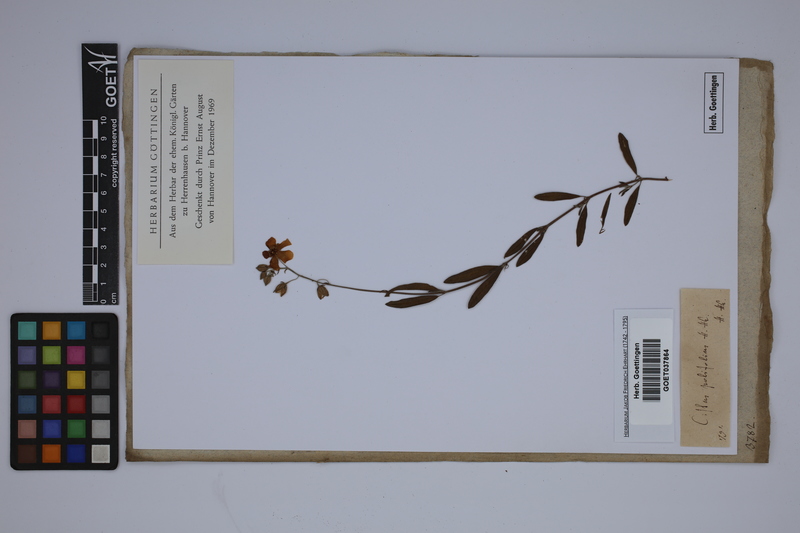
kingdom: Plantae
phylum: Tracheophyta
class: Magnoliopsida
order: Malvales
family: Cistaceae
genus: Helianthemum
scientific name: Helianthemum apenninum
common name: White rock-rose
